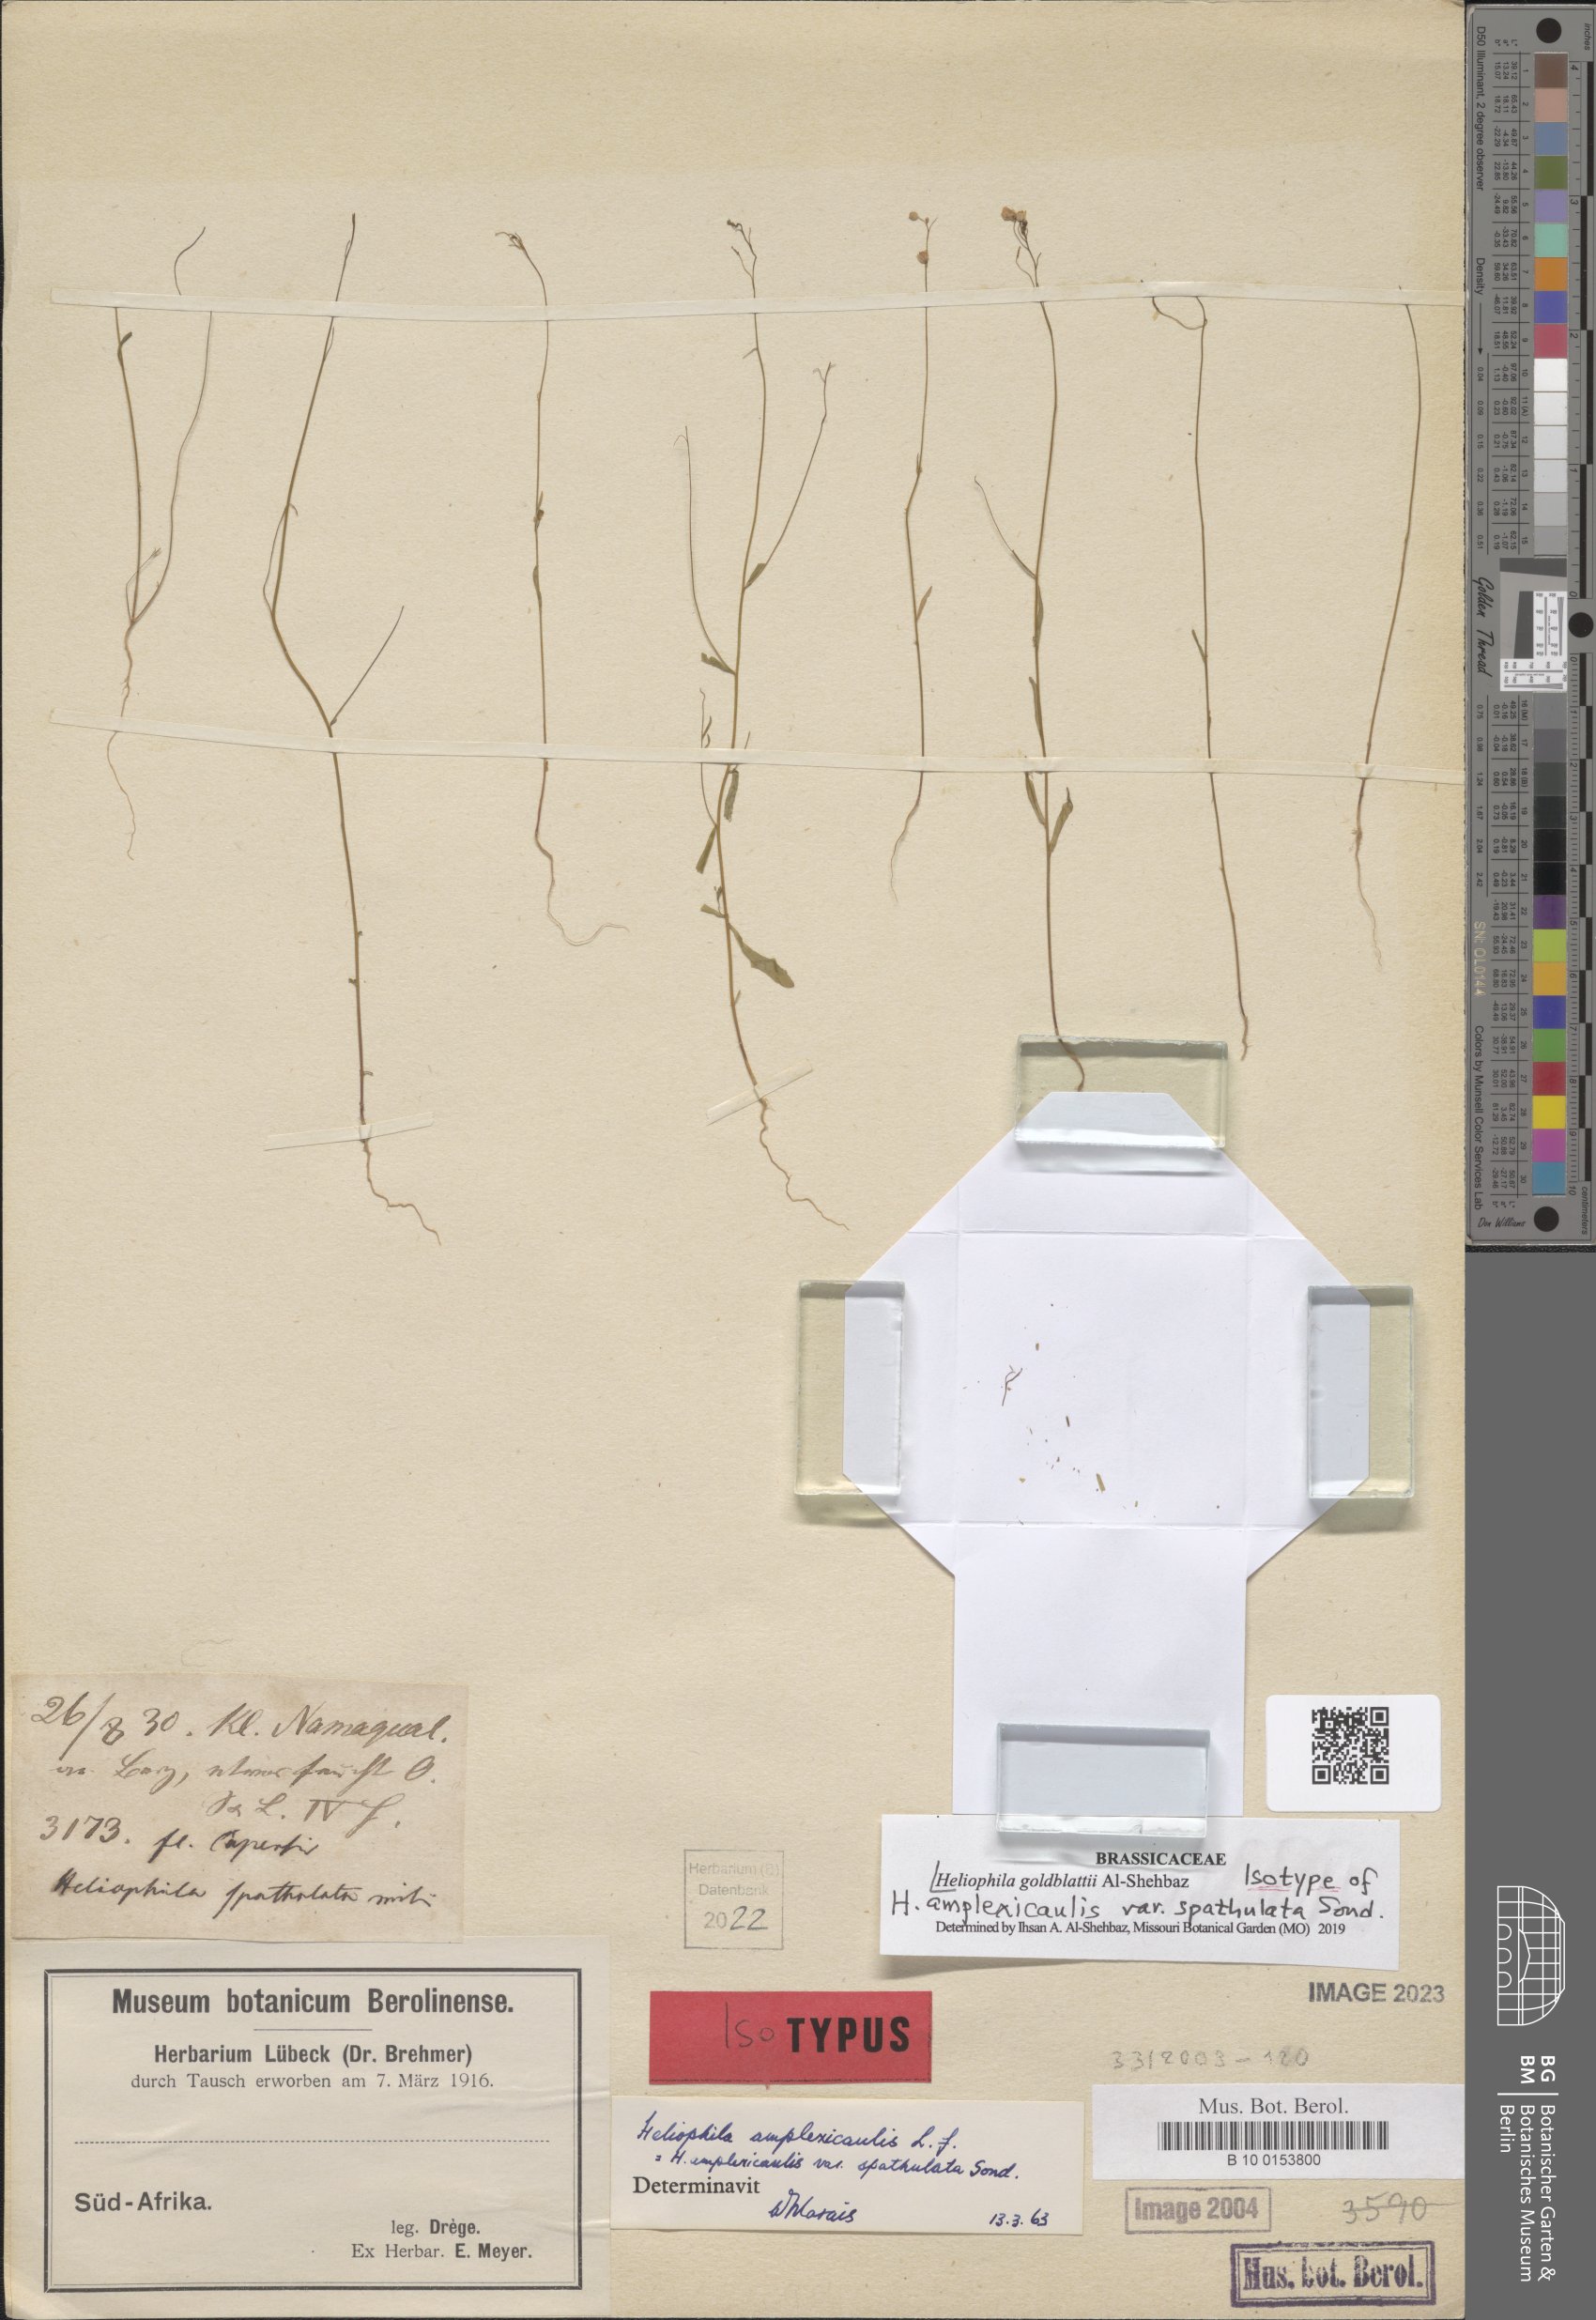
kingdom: Plantae
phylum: Tracheophyta
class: Magnoliopsida
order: Brassicales
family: Brassicaceae
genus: Heliophila
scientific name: Heliophila goldblattii
